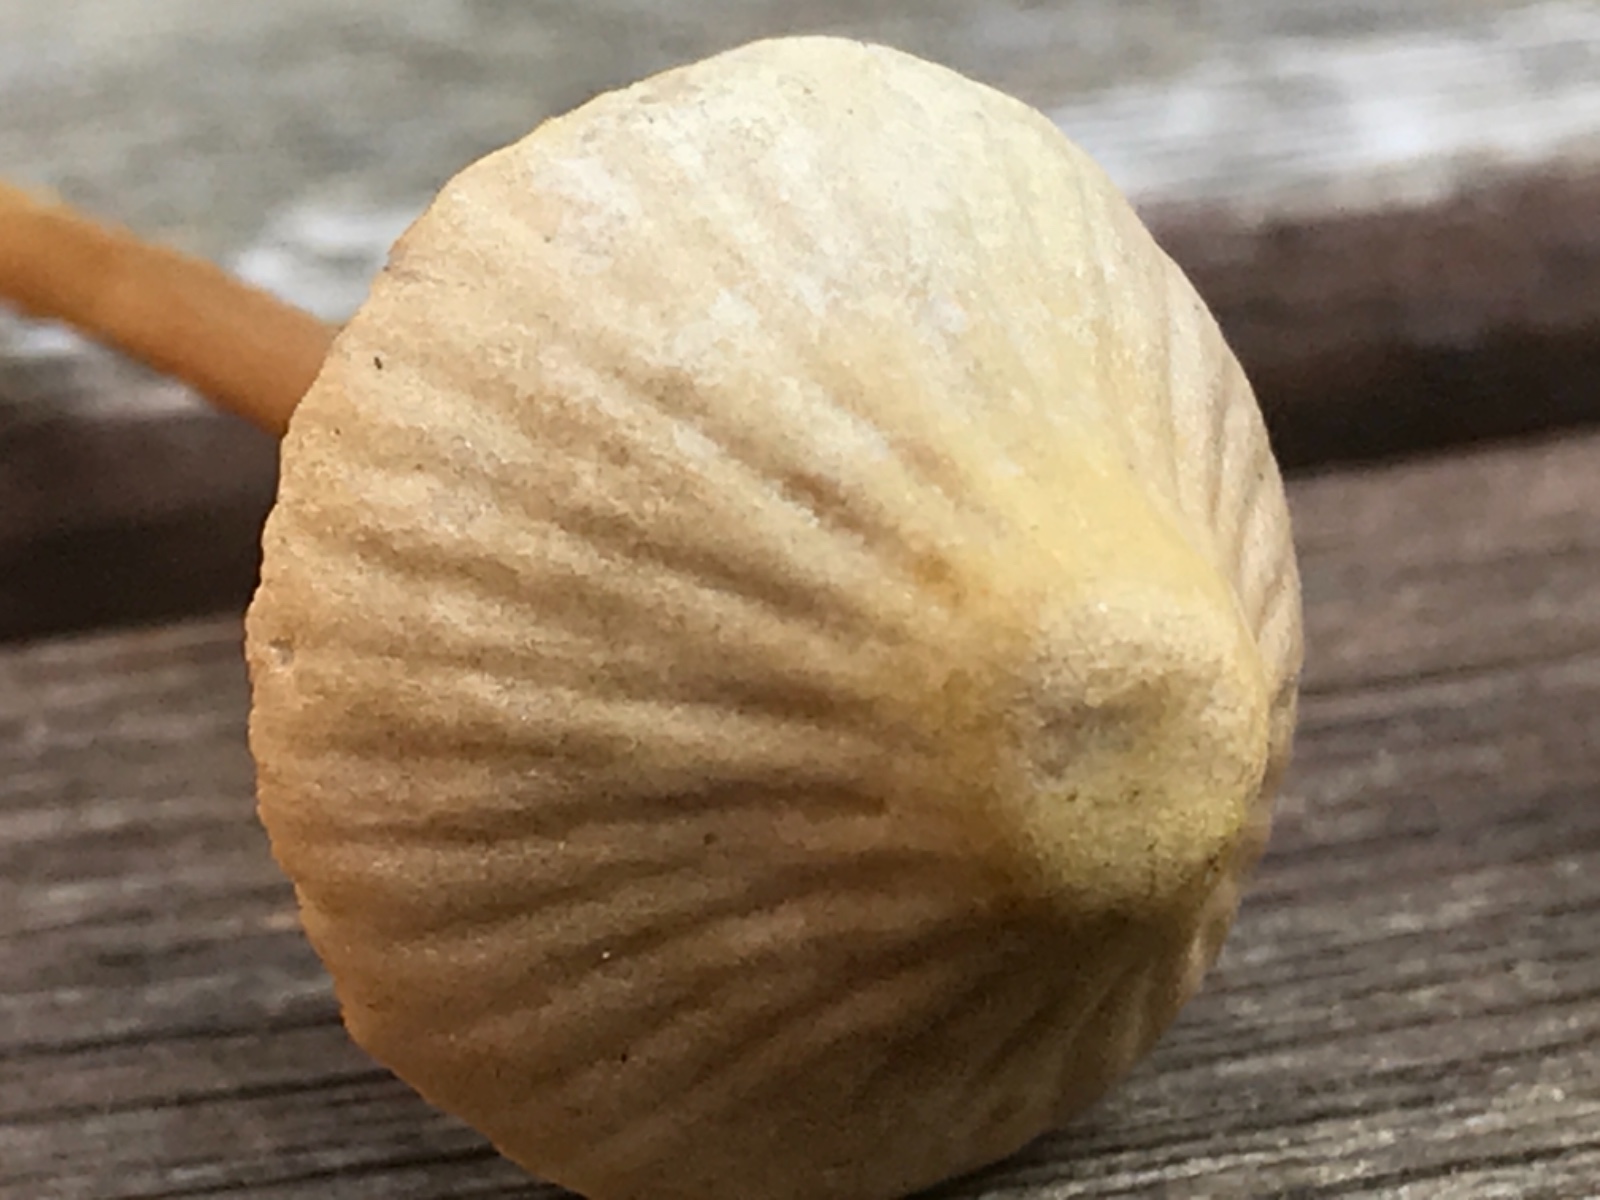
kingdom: Fungi
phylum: Basidiomycota
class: Agaricomycetes
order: Agaricales
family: Mycenaceae
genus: Mycena
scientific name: Mycena olivaceomarginata
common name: brunægget huesvamp
